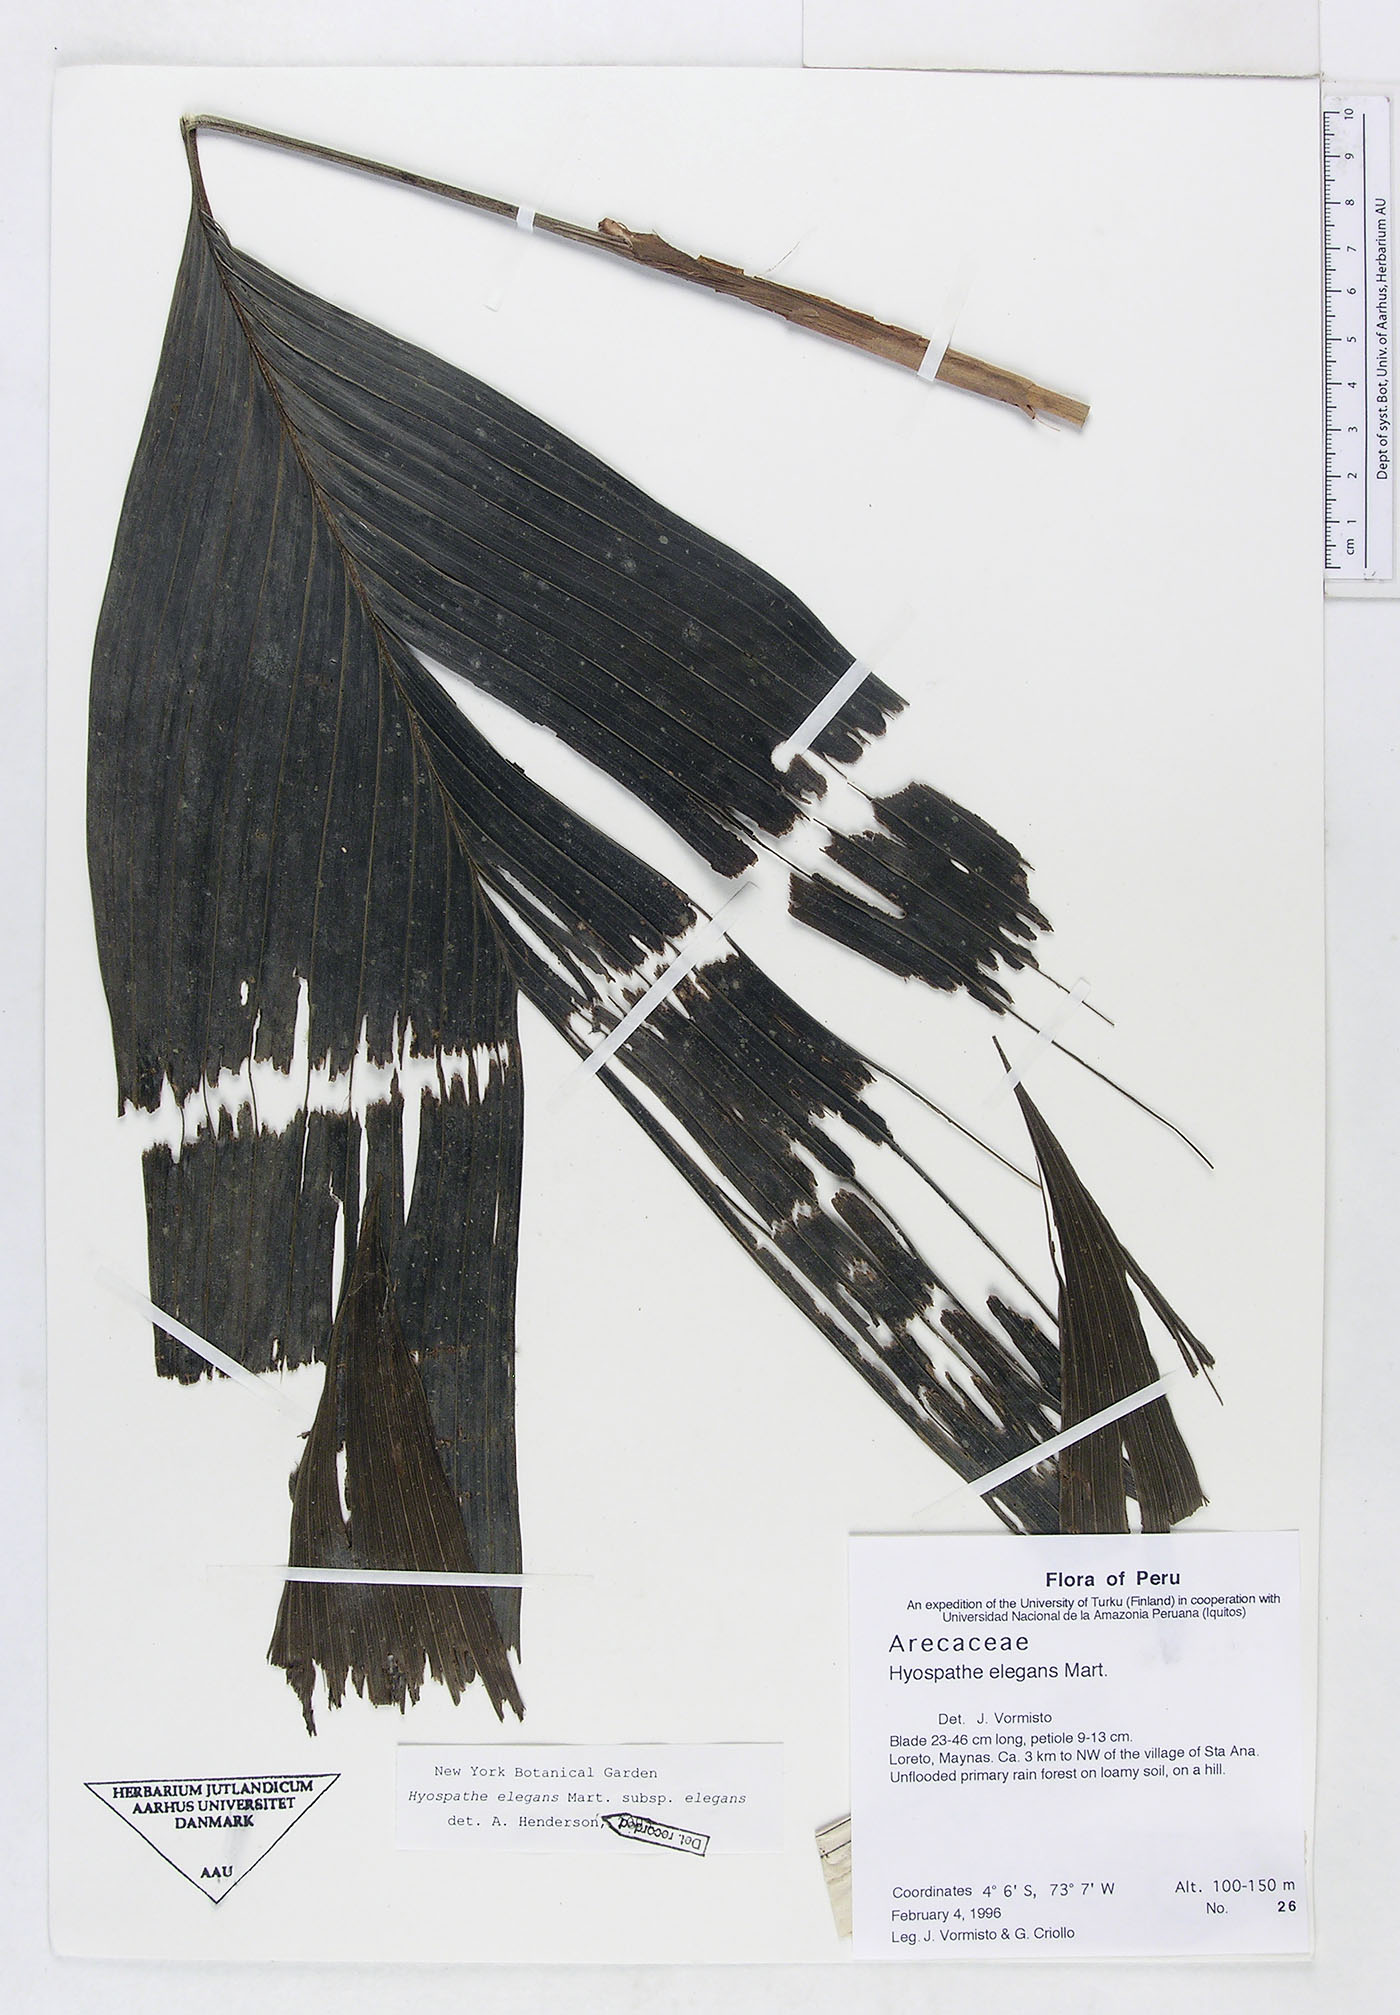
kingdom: Plantae
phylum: Tracheophyta
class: Liliopsida
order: Arecales
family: Arecaceae
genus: Hyospathe
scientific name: Hyospathe elegans
